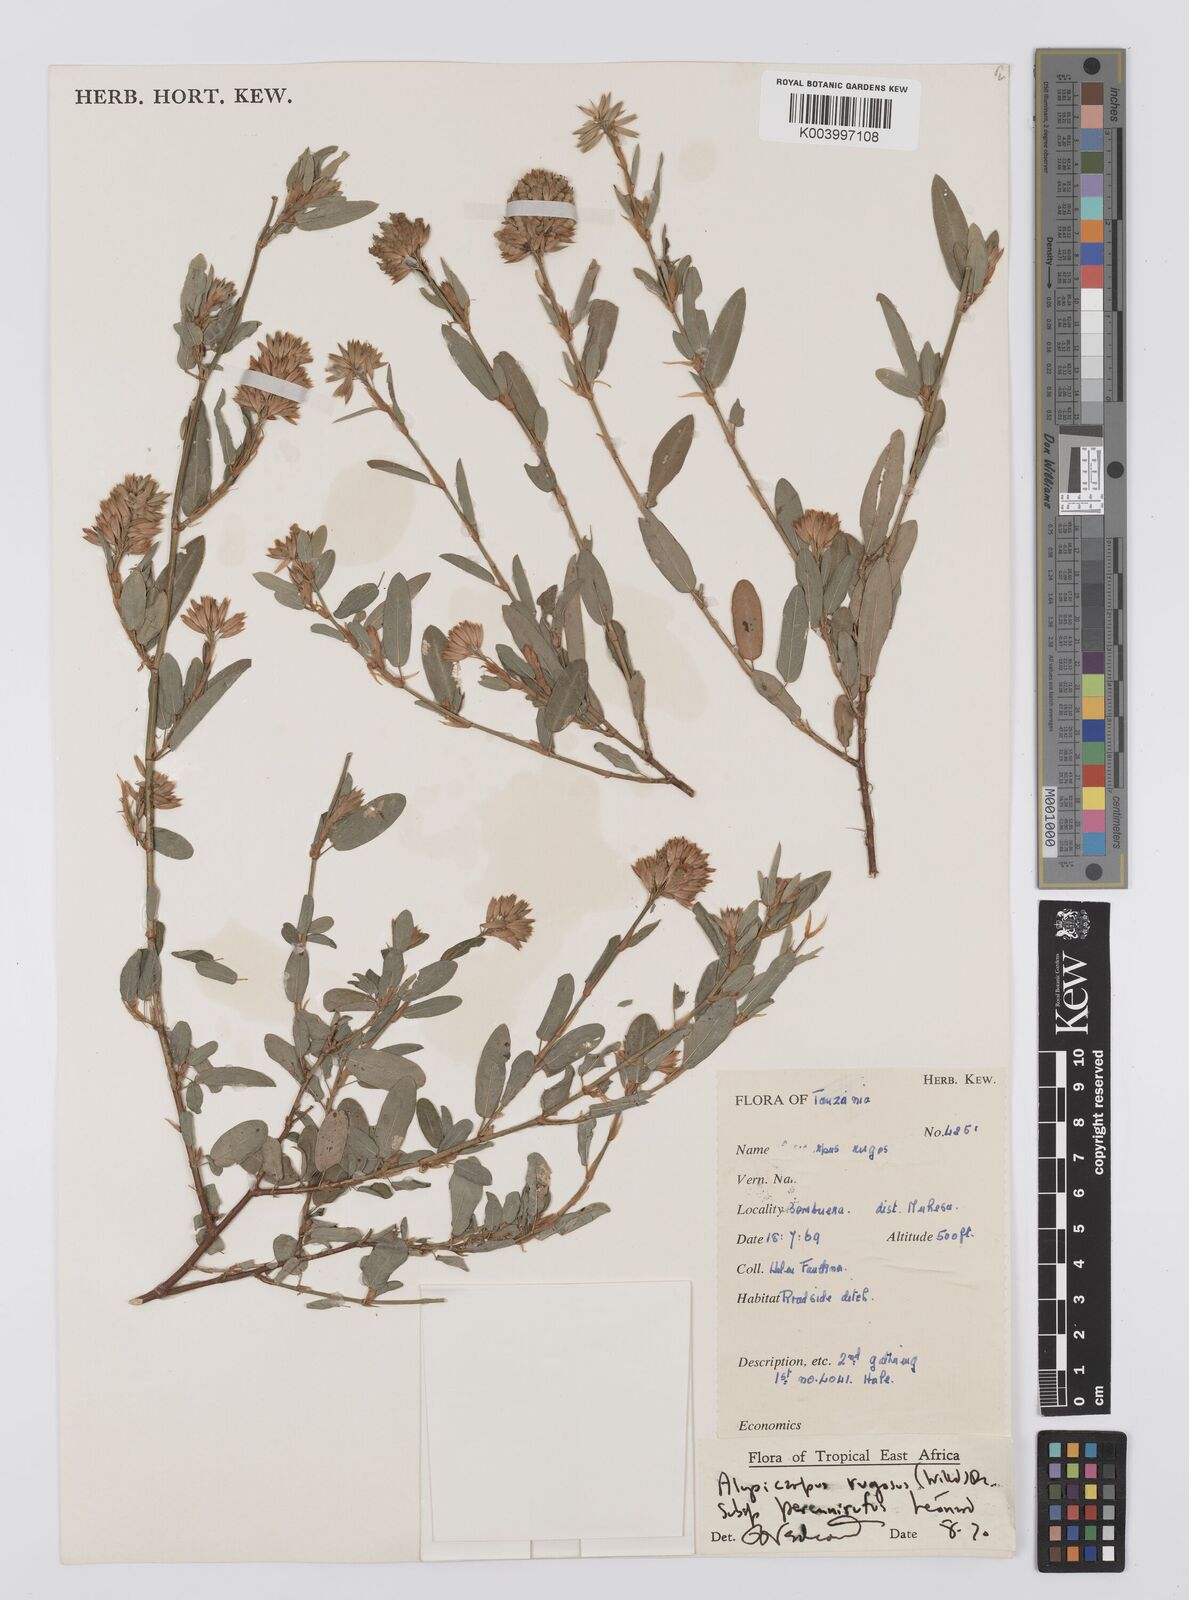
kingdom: Plantae
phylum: Tracheophyta
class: Magnoliopsida
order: Fabales
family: Fabaceae
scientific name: Fabaceae
